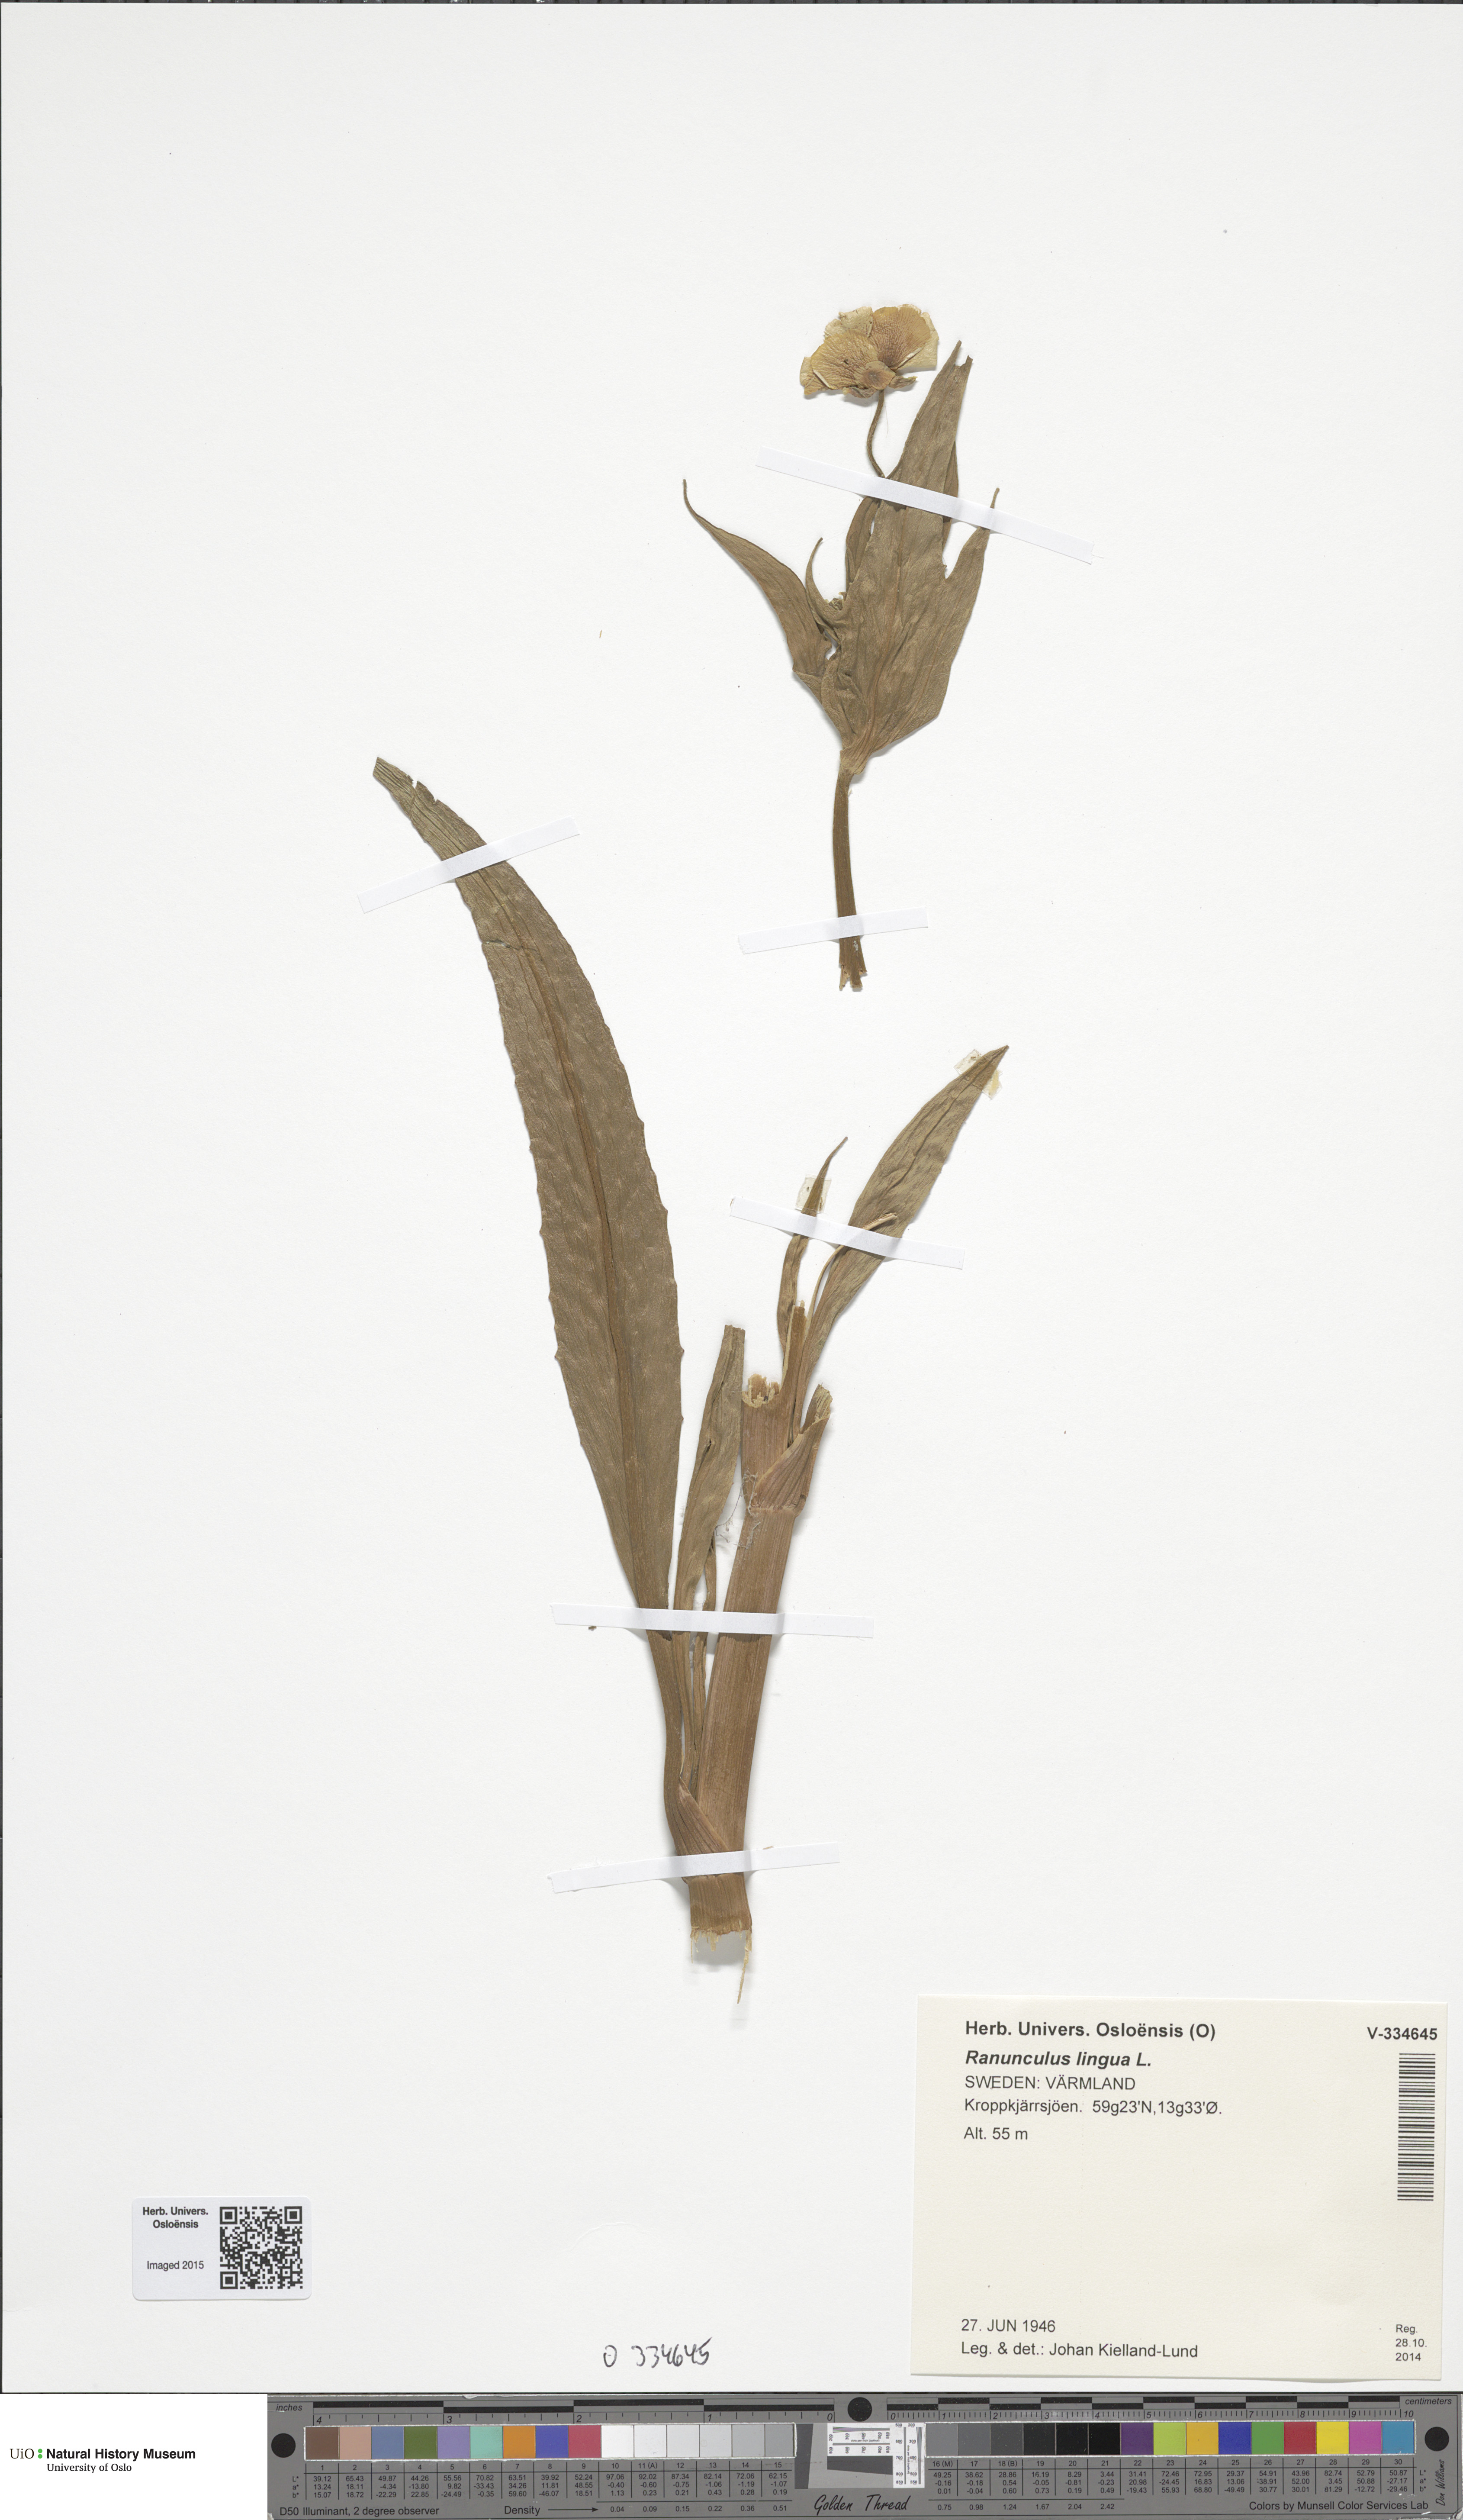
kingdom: Plantae
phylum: Tracheophyta
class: Magnoliopsida
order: Ranunculales
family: Ranunculaceae
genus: Ranunculus
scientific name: Ranunculus lingua
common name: Greater spearwort
